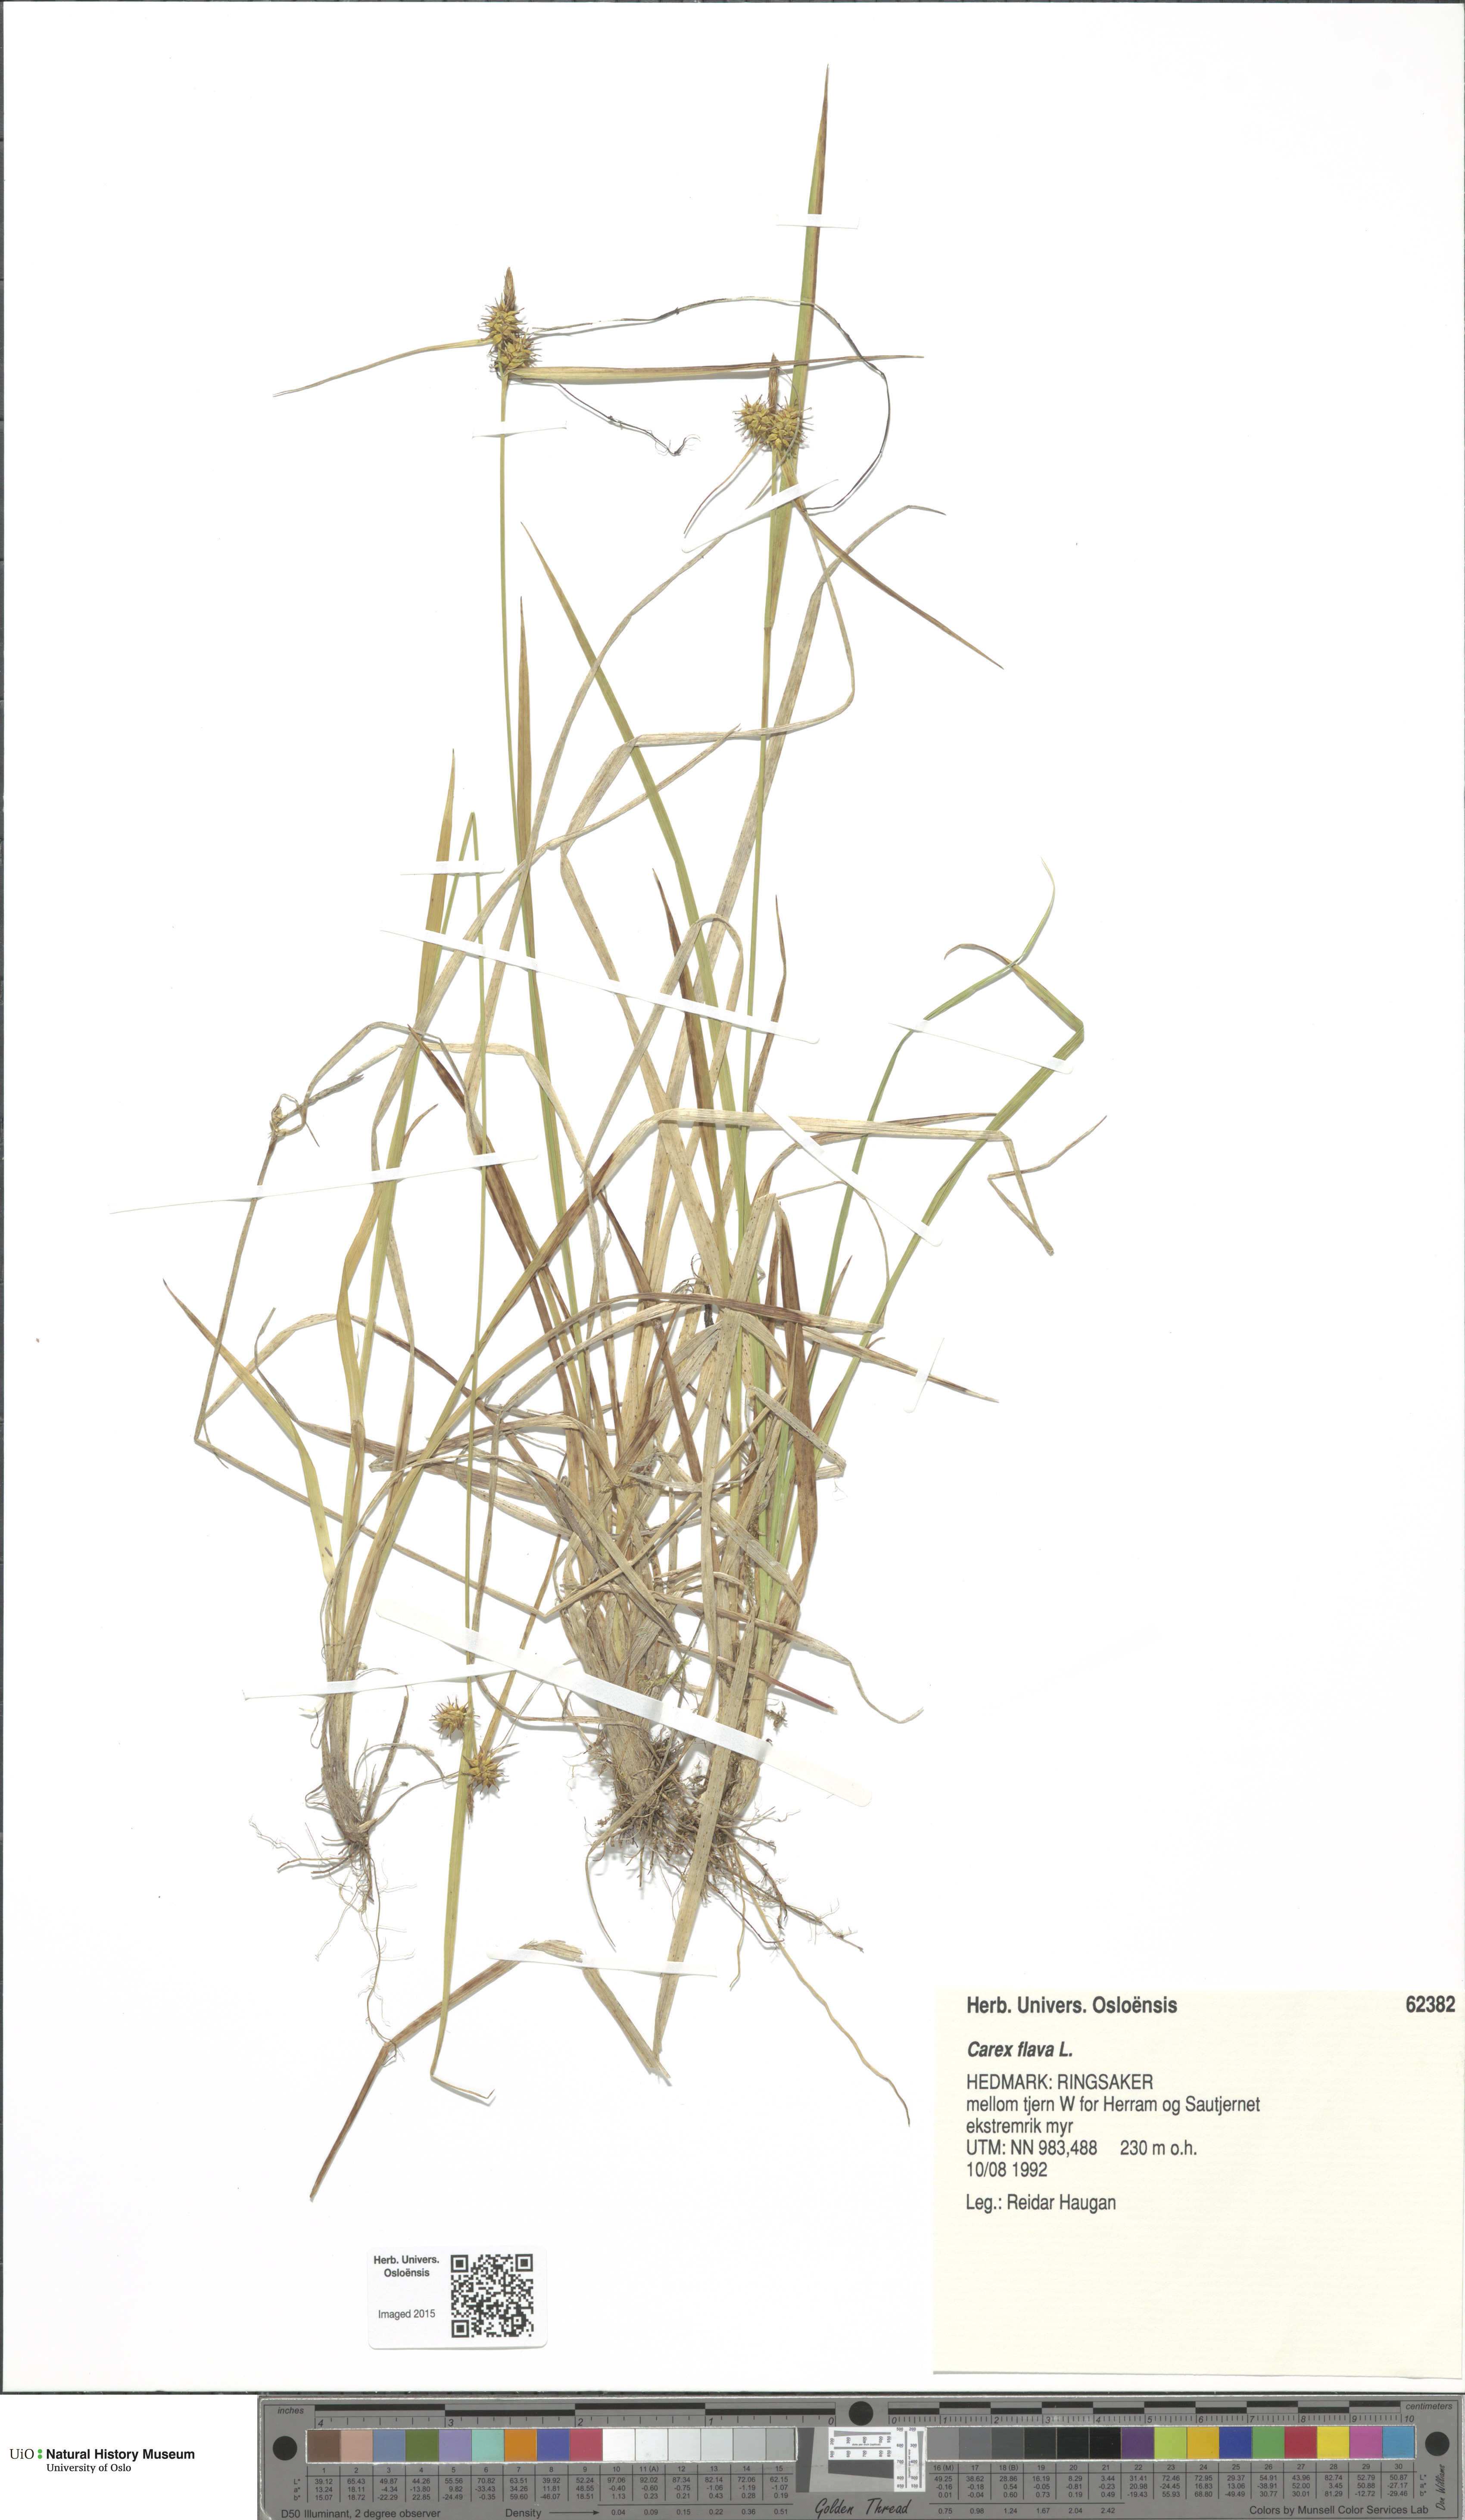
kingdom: Plantae
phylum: Tracheophyta
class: Liliopsida
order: Poales
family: Cyperaceae
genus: Carex
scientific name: Carex flava
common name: Large yellow-sedge
